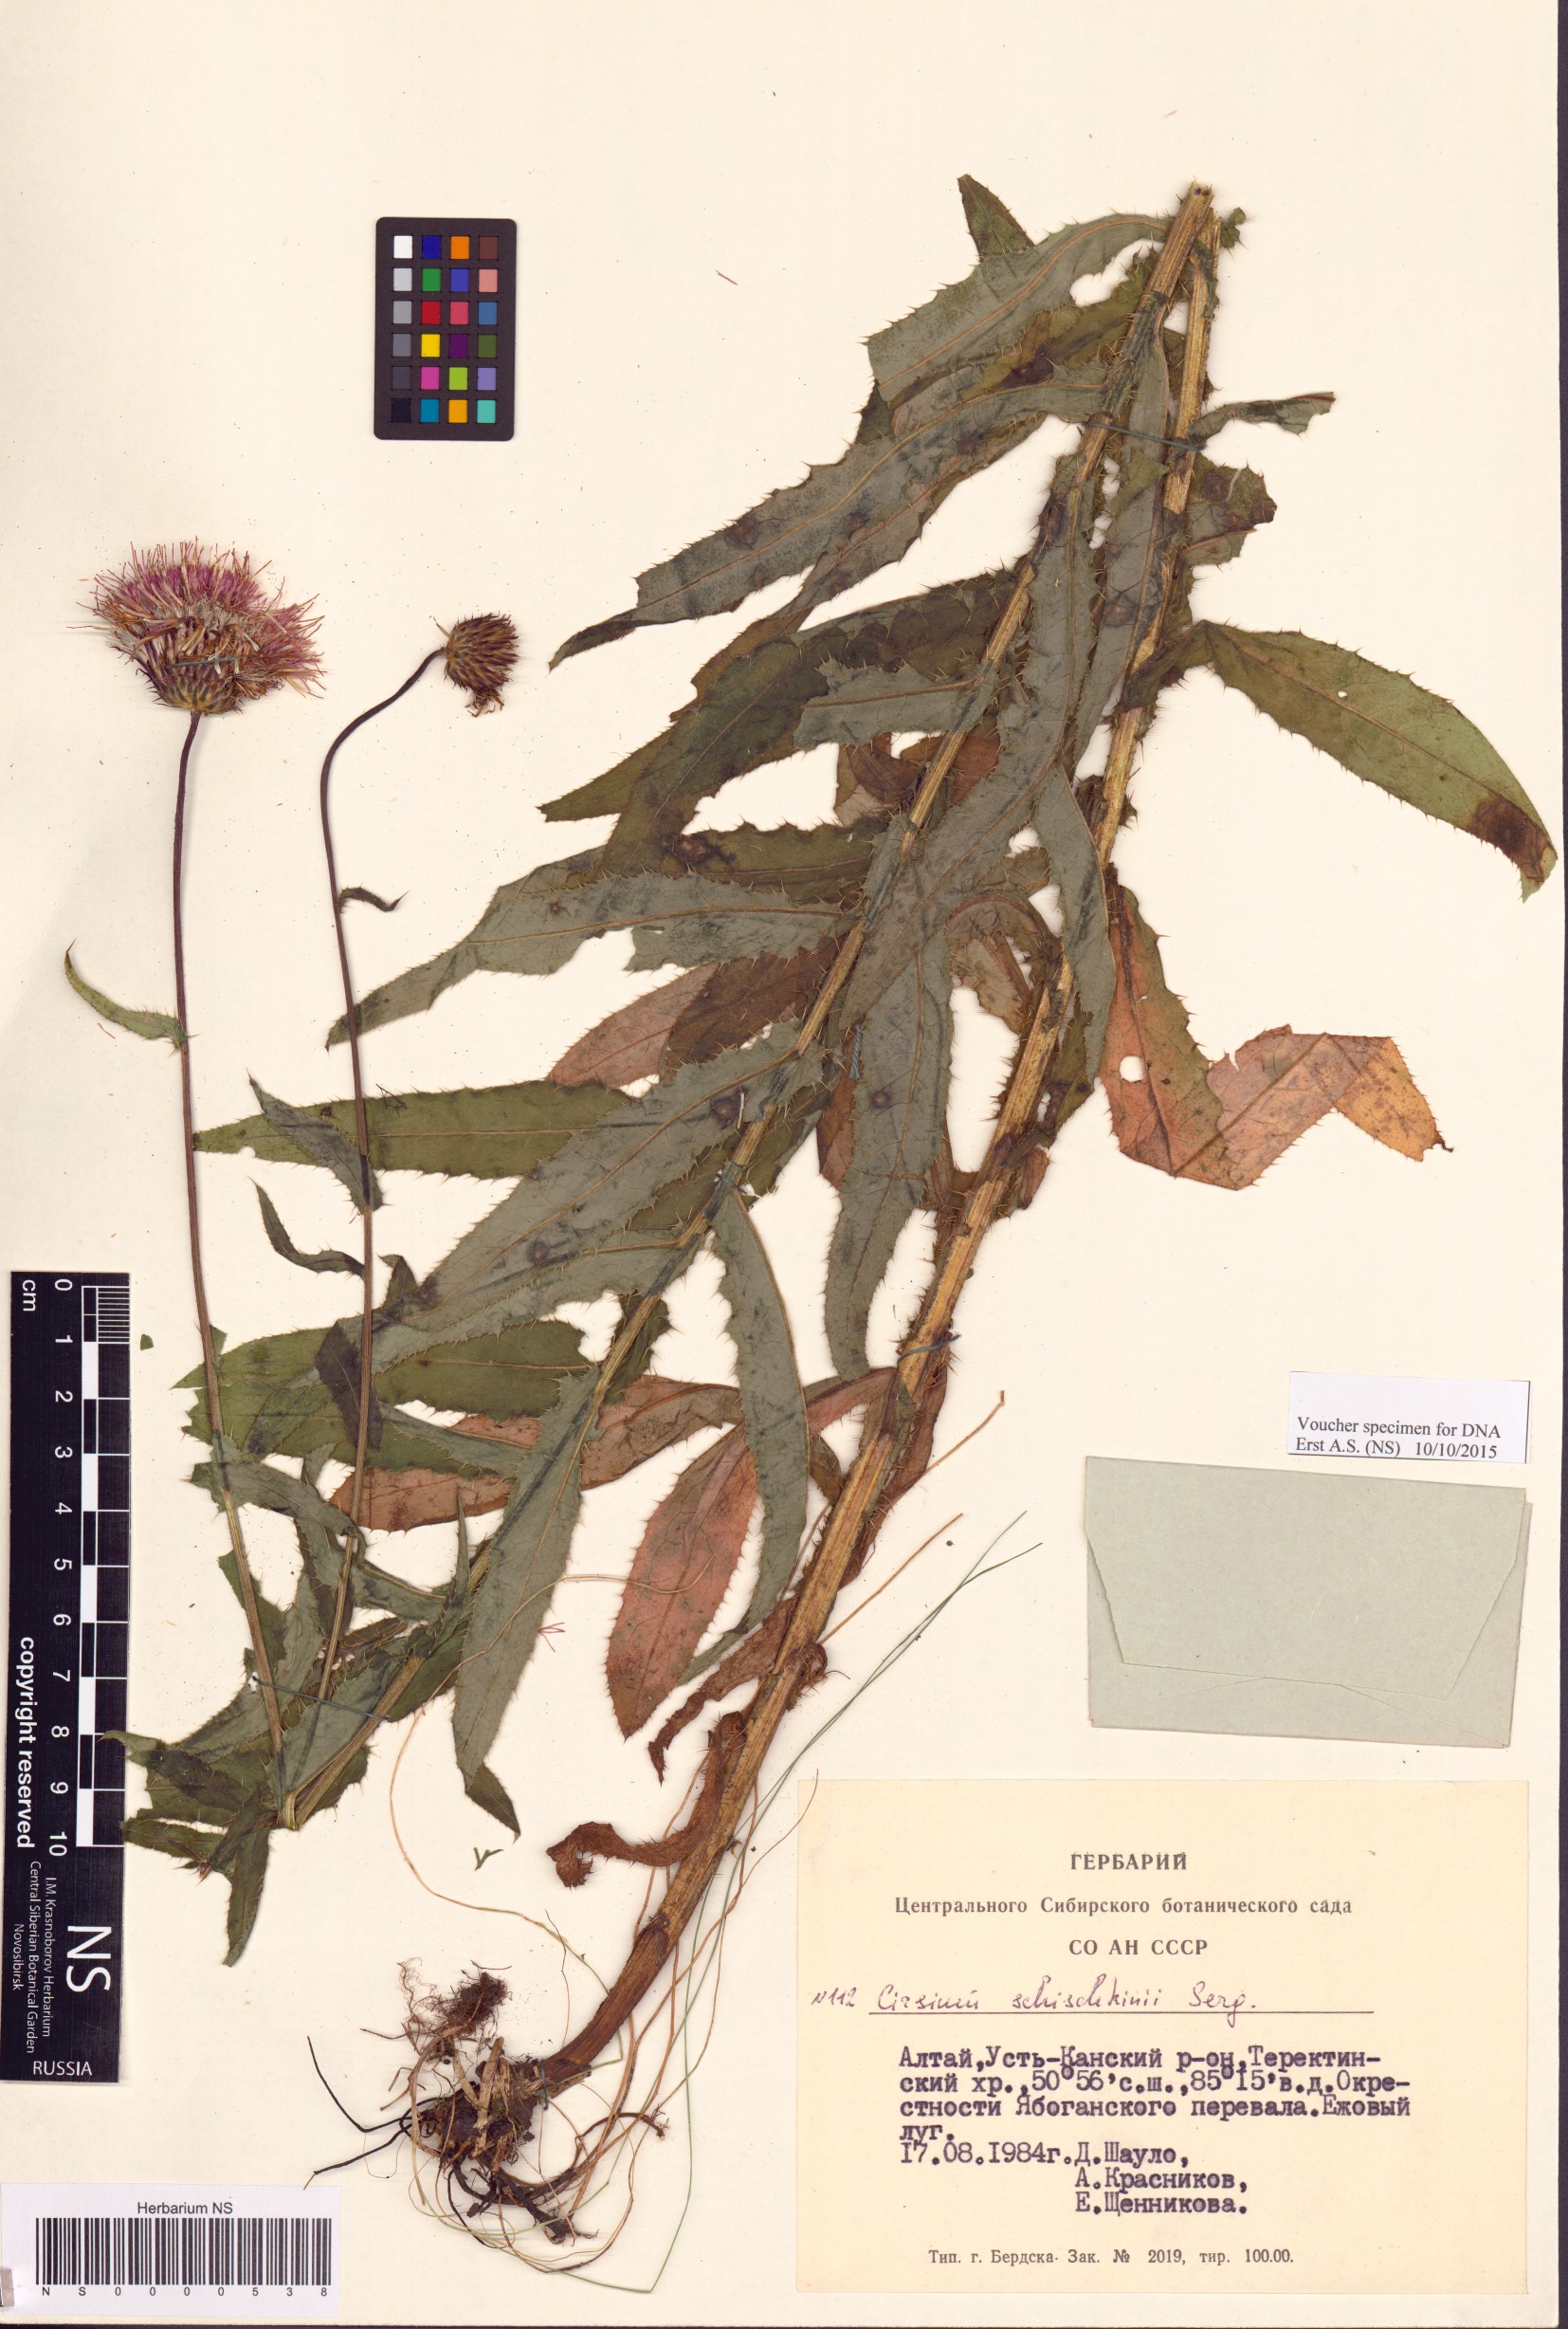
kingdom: Plantae
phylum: Tracheophyta
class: Magnoliopsida
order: Asterales
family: Asteraceae
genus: Cirsium
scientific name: Cirsium komarovii
